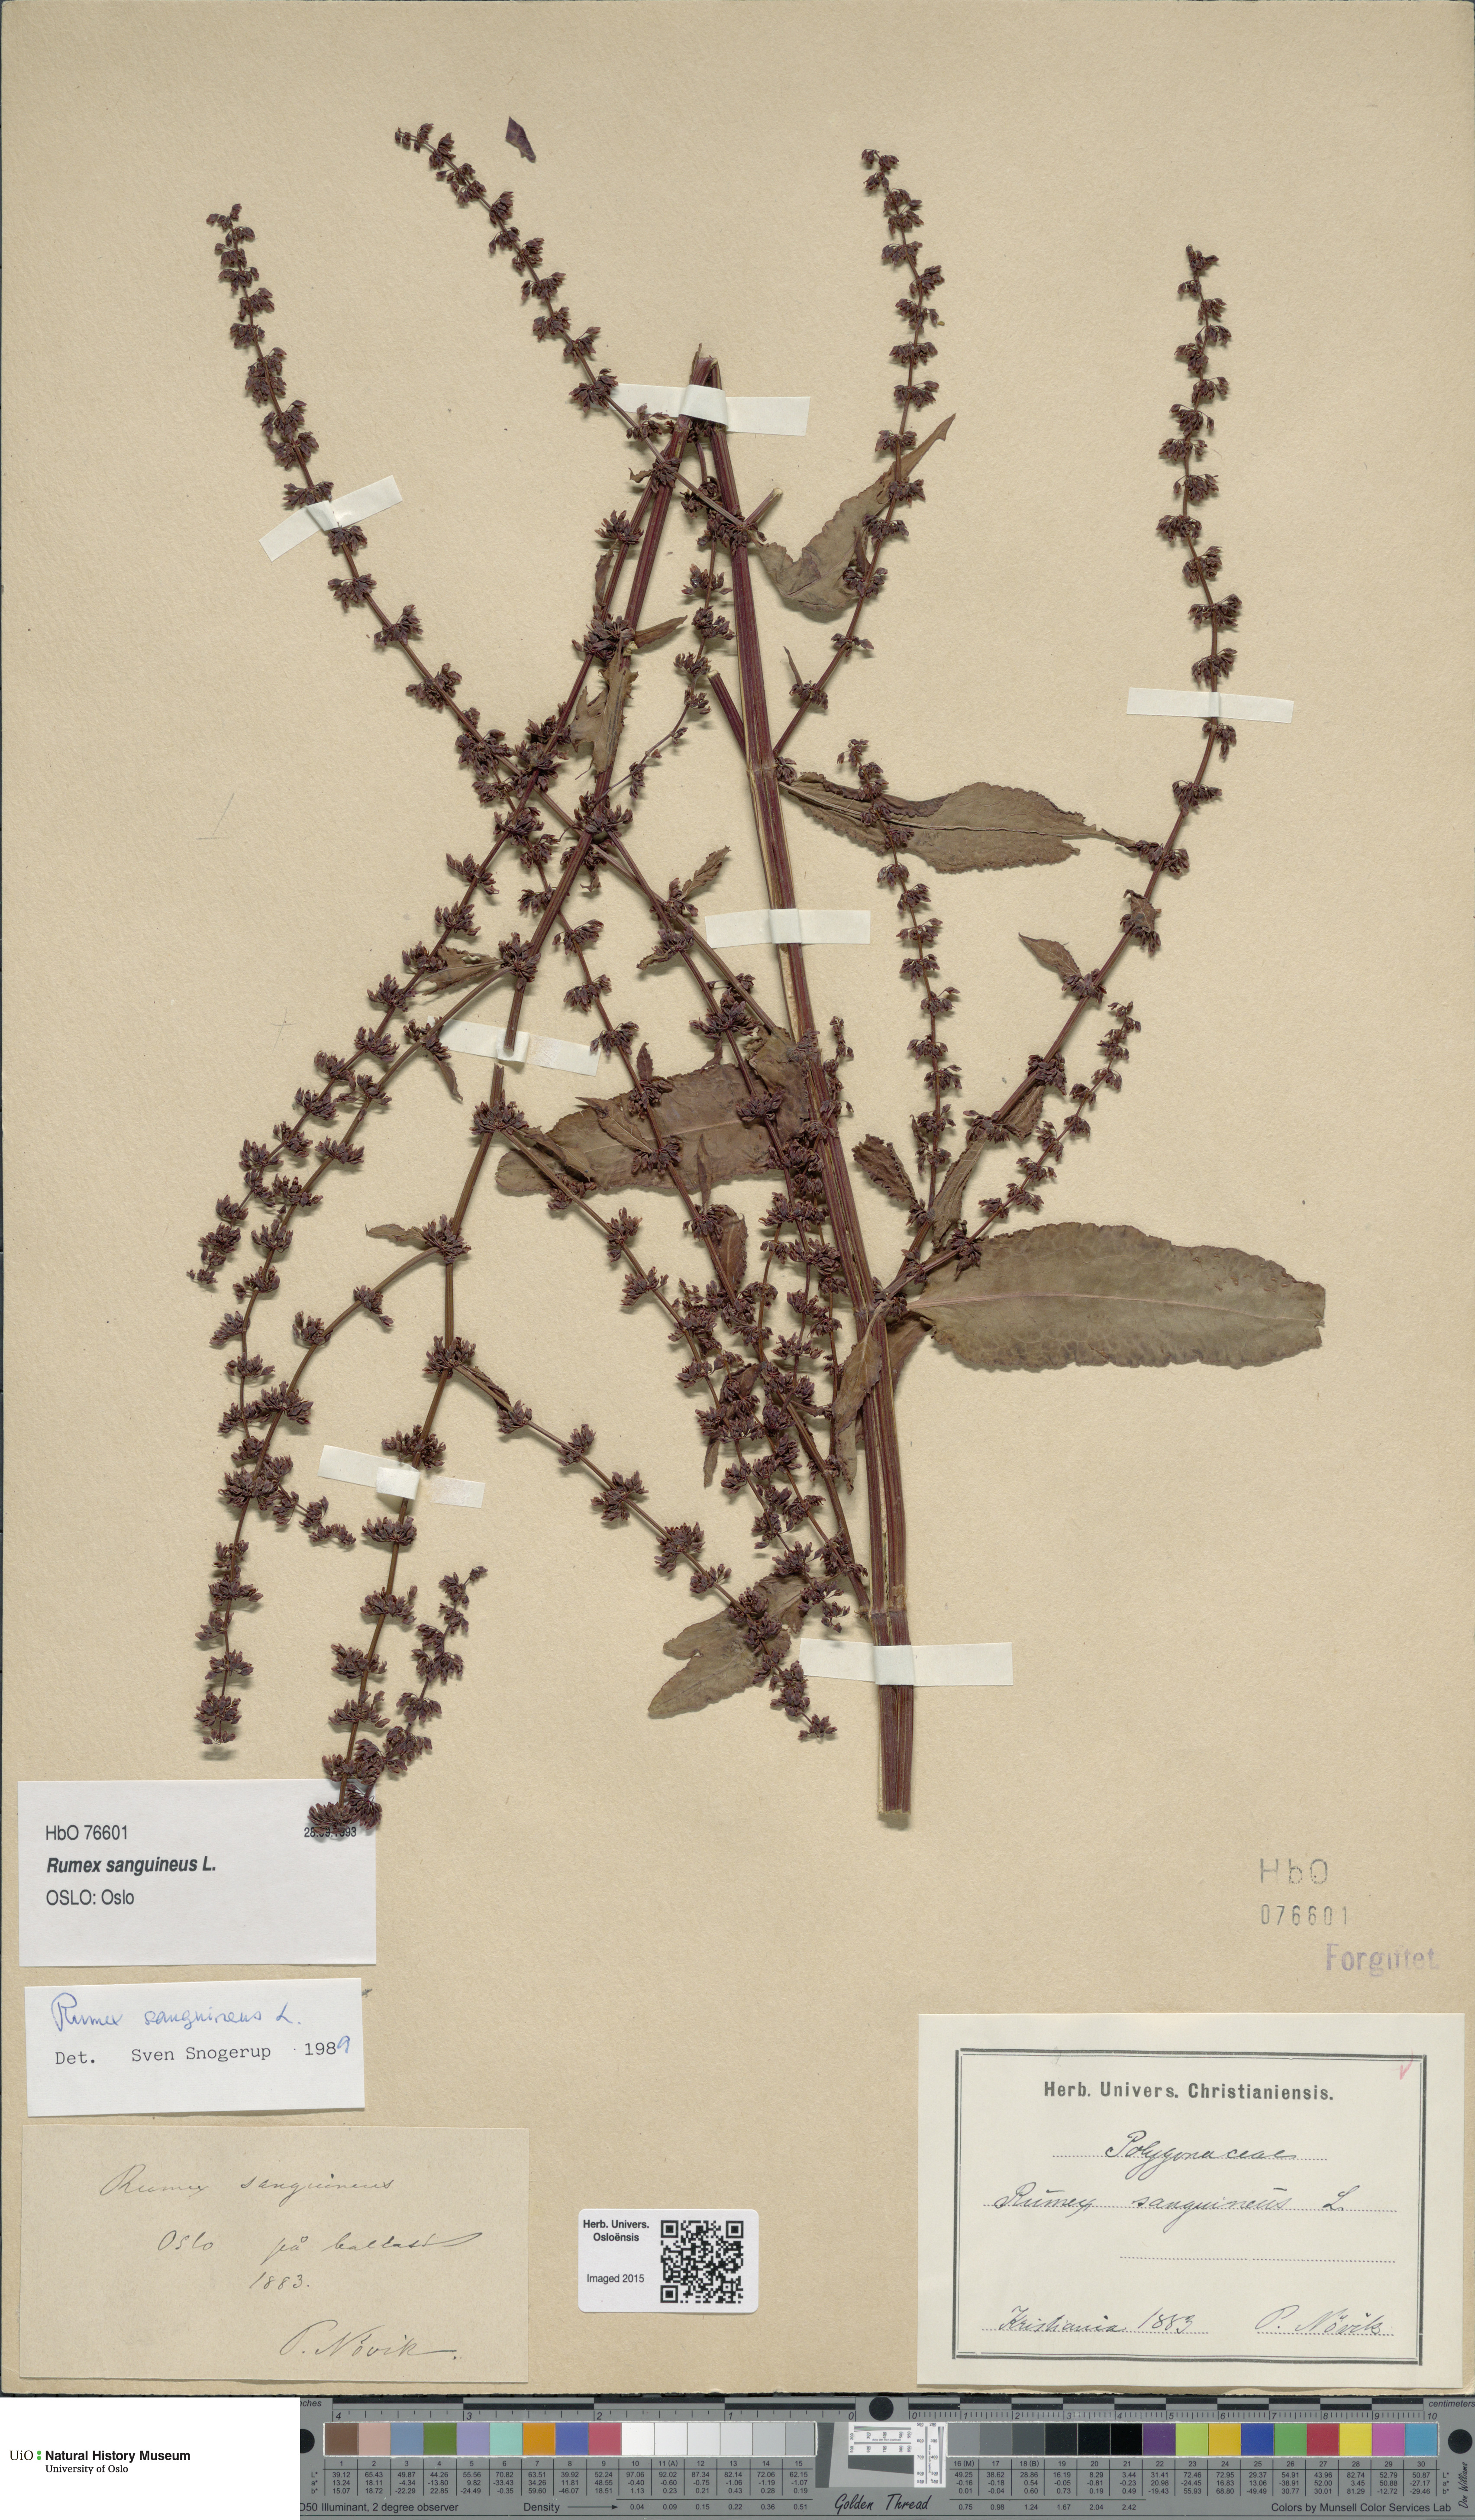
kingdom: Plantae
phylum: Tracheophyta
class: Magnoliopsida
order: Caryophyllales
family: Polygonaceae
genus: Rumex
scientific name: Rumex sanguineus
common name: Wood dock
